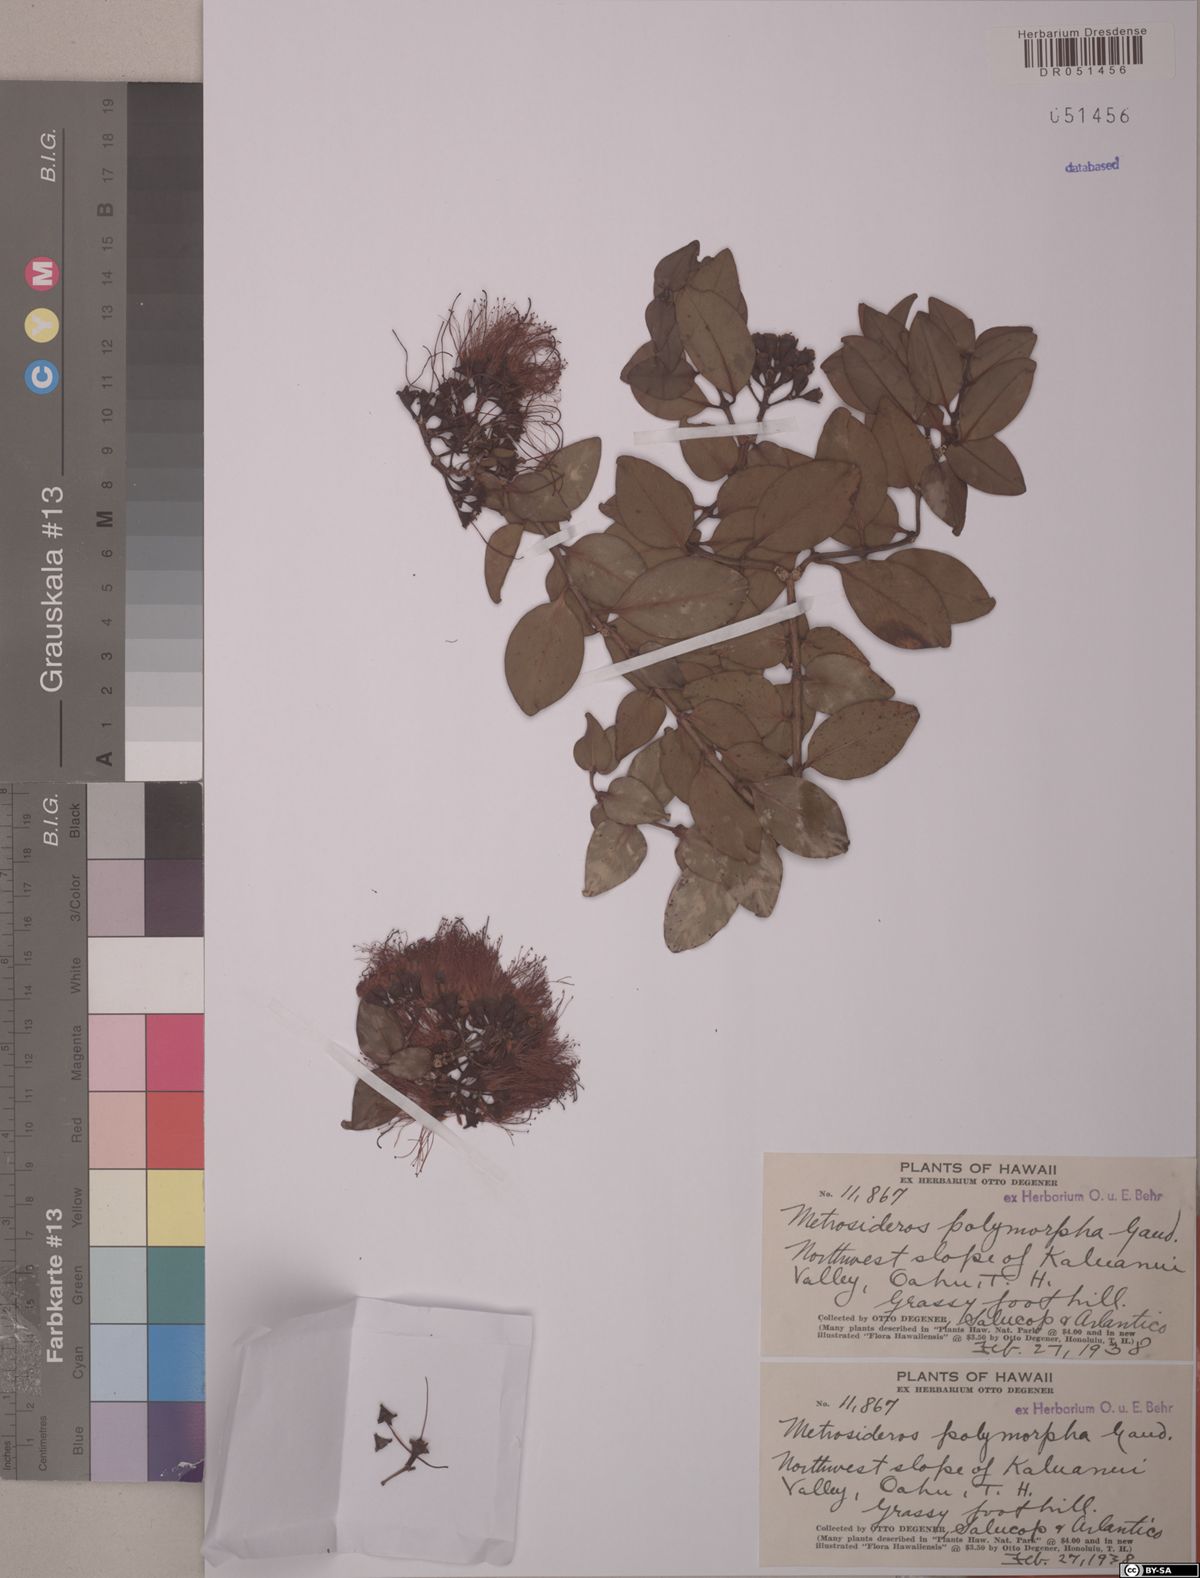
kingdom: Plantae
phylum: Tracheophyta
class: Magnoliopsida
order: Myrtales
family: Myrtaceae
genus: Metrosideros
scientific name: Metrosideros polymorpha
